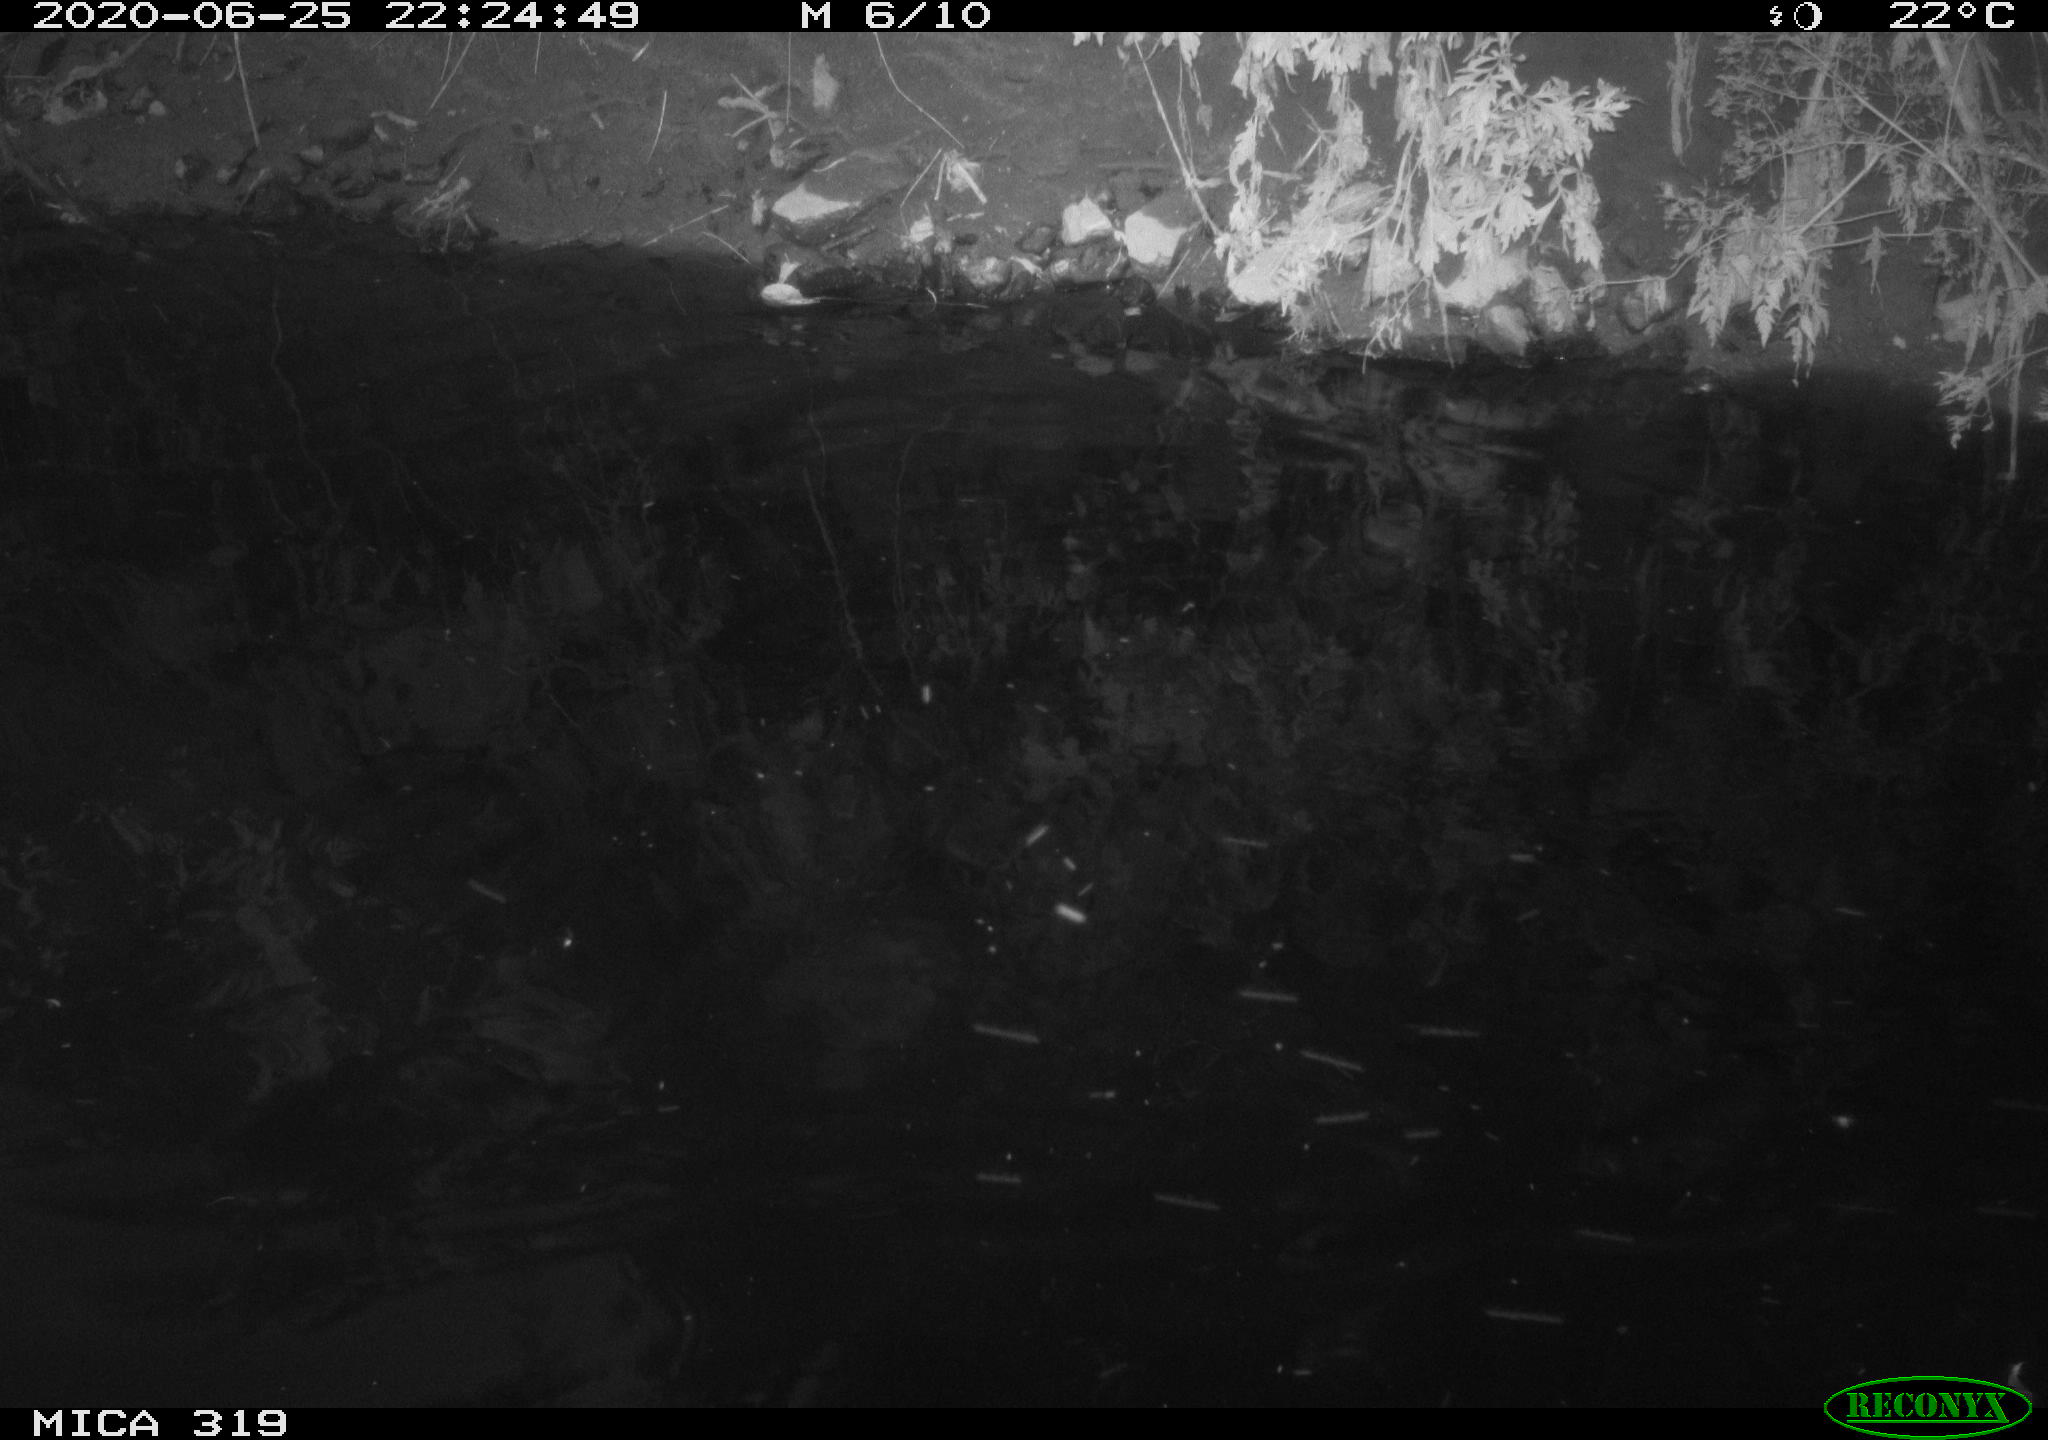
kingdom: Animalia
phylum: Chordata
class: Aves
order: Anseriformes
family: Anatidae
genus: Anas
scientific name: Anas platyrhynchos
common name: Mallard
